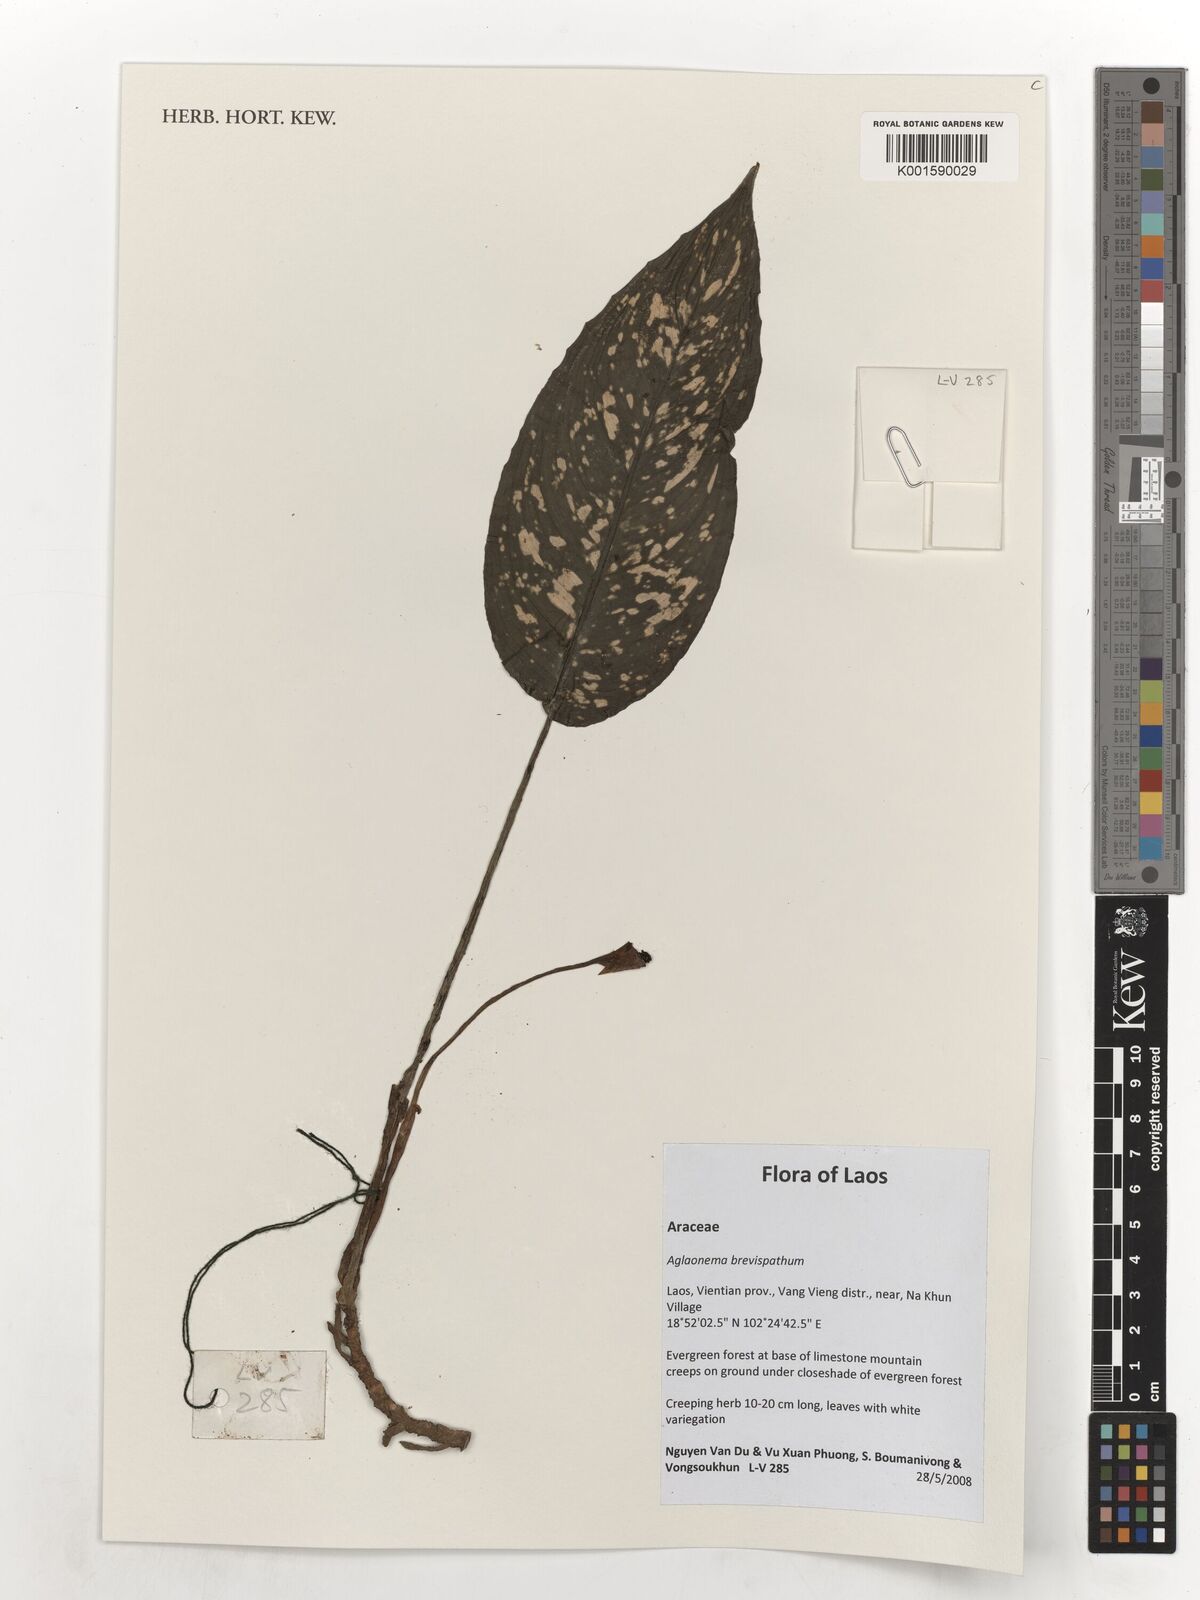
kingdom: Plantae
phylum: Tracheophyta
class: Liliopsida
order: Alismatales
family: Araceae
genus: Aglaonema
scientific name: Aglaonema brevispathum
